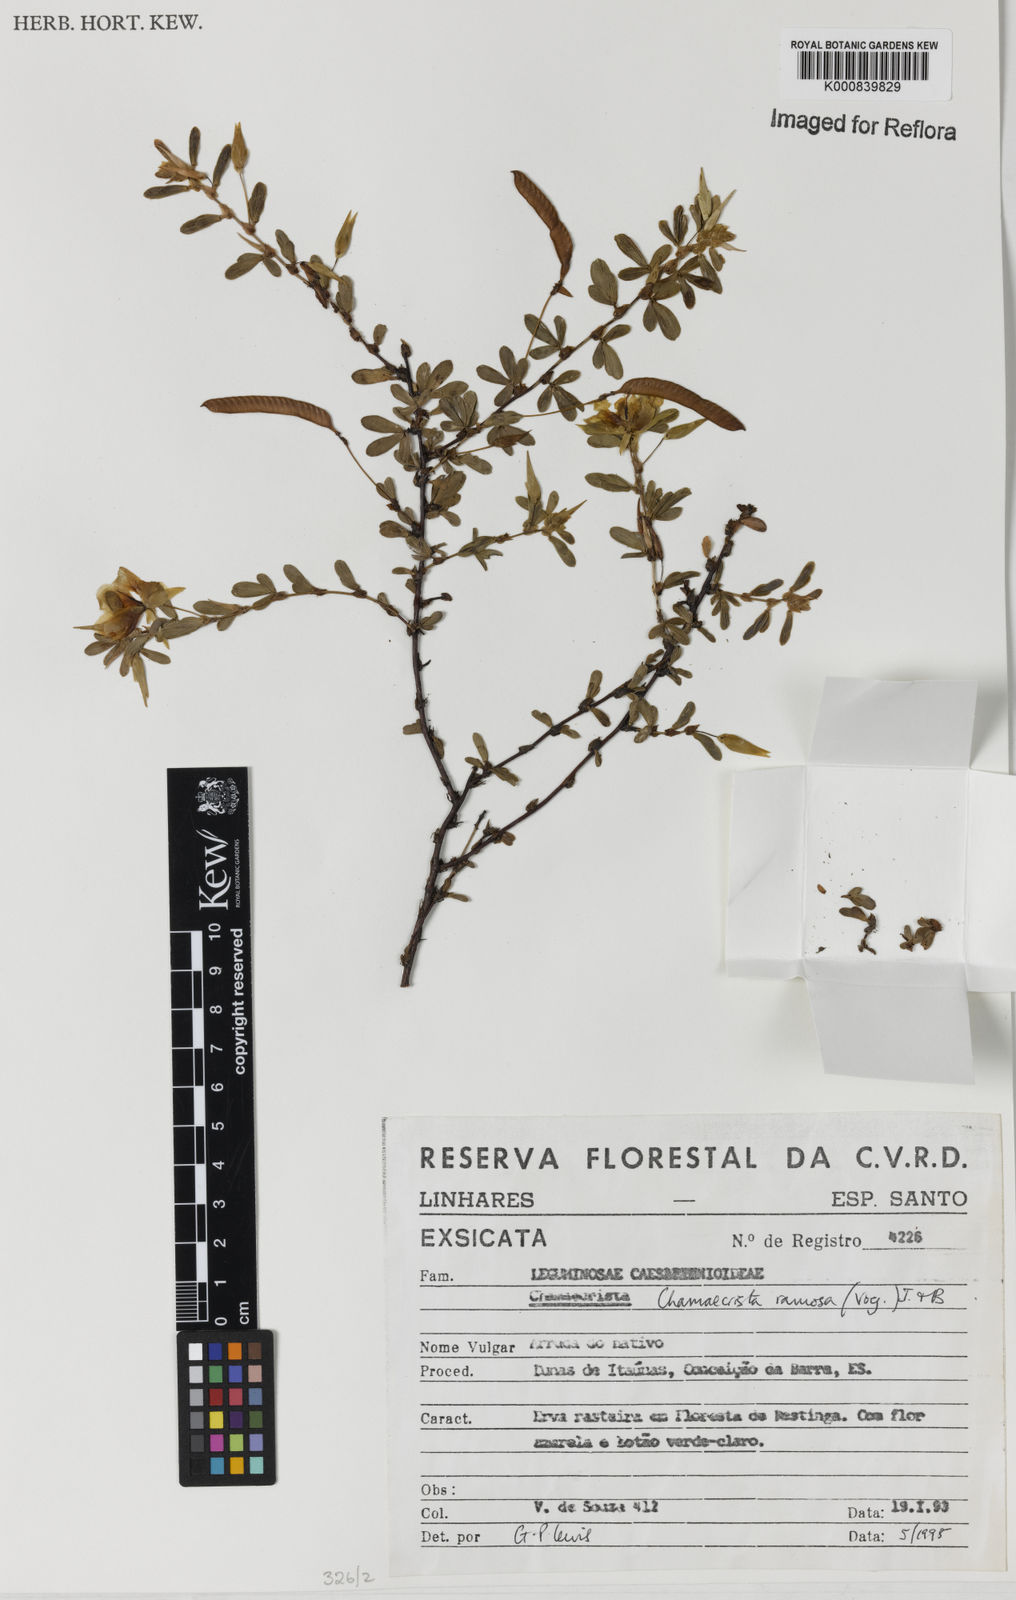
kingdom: Plantae
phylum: Tracheophyta
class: Magnoliopsida
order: Fabales
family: Fabaceae
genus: Chamaecrista
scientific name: Chamaecrista ramosa
